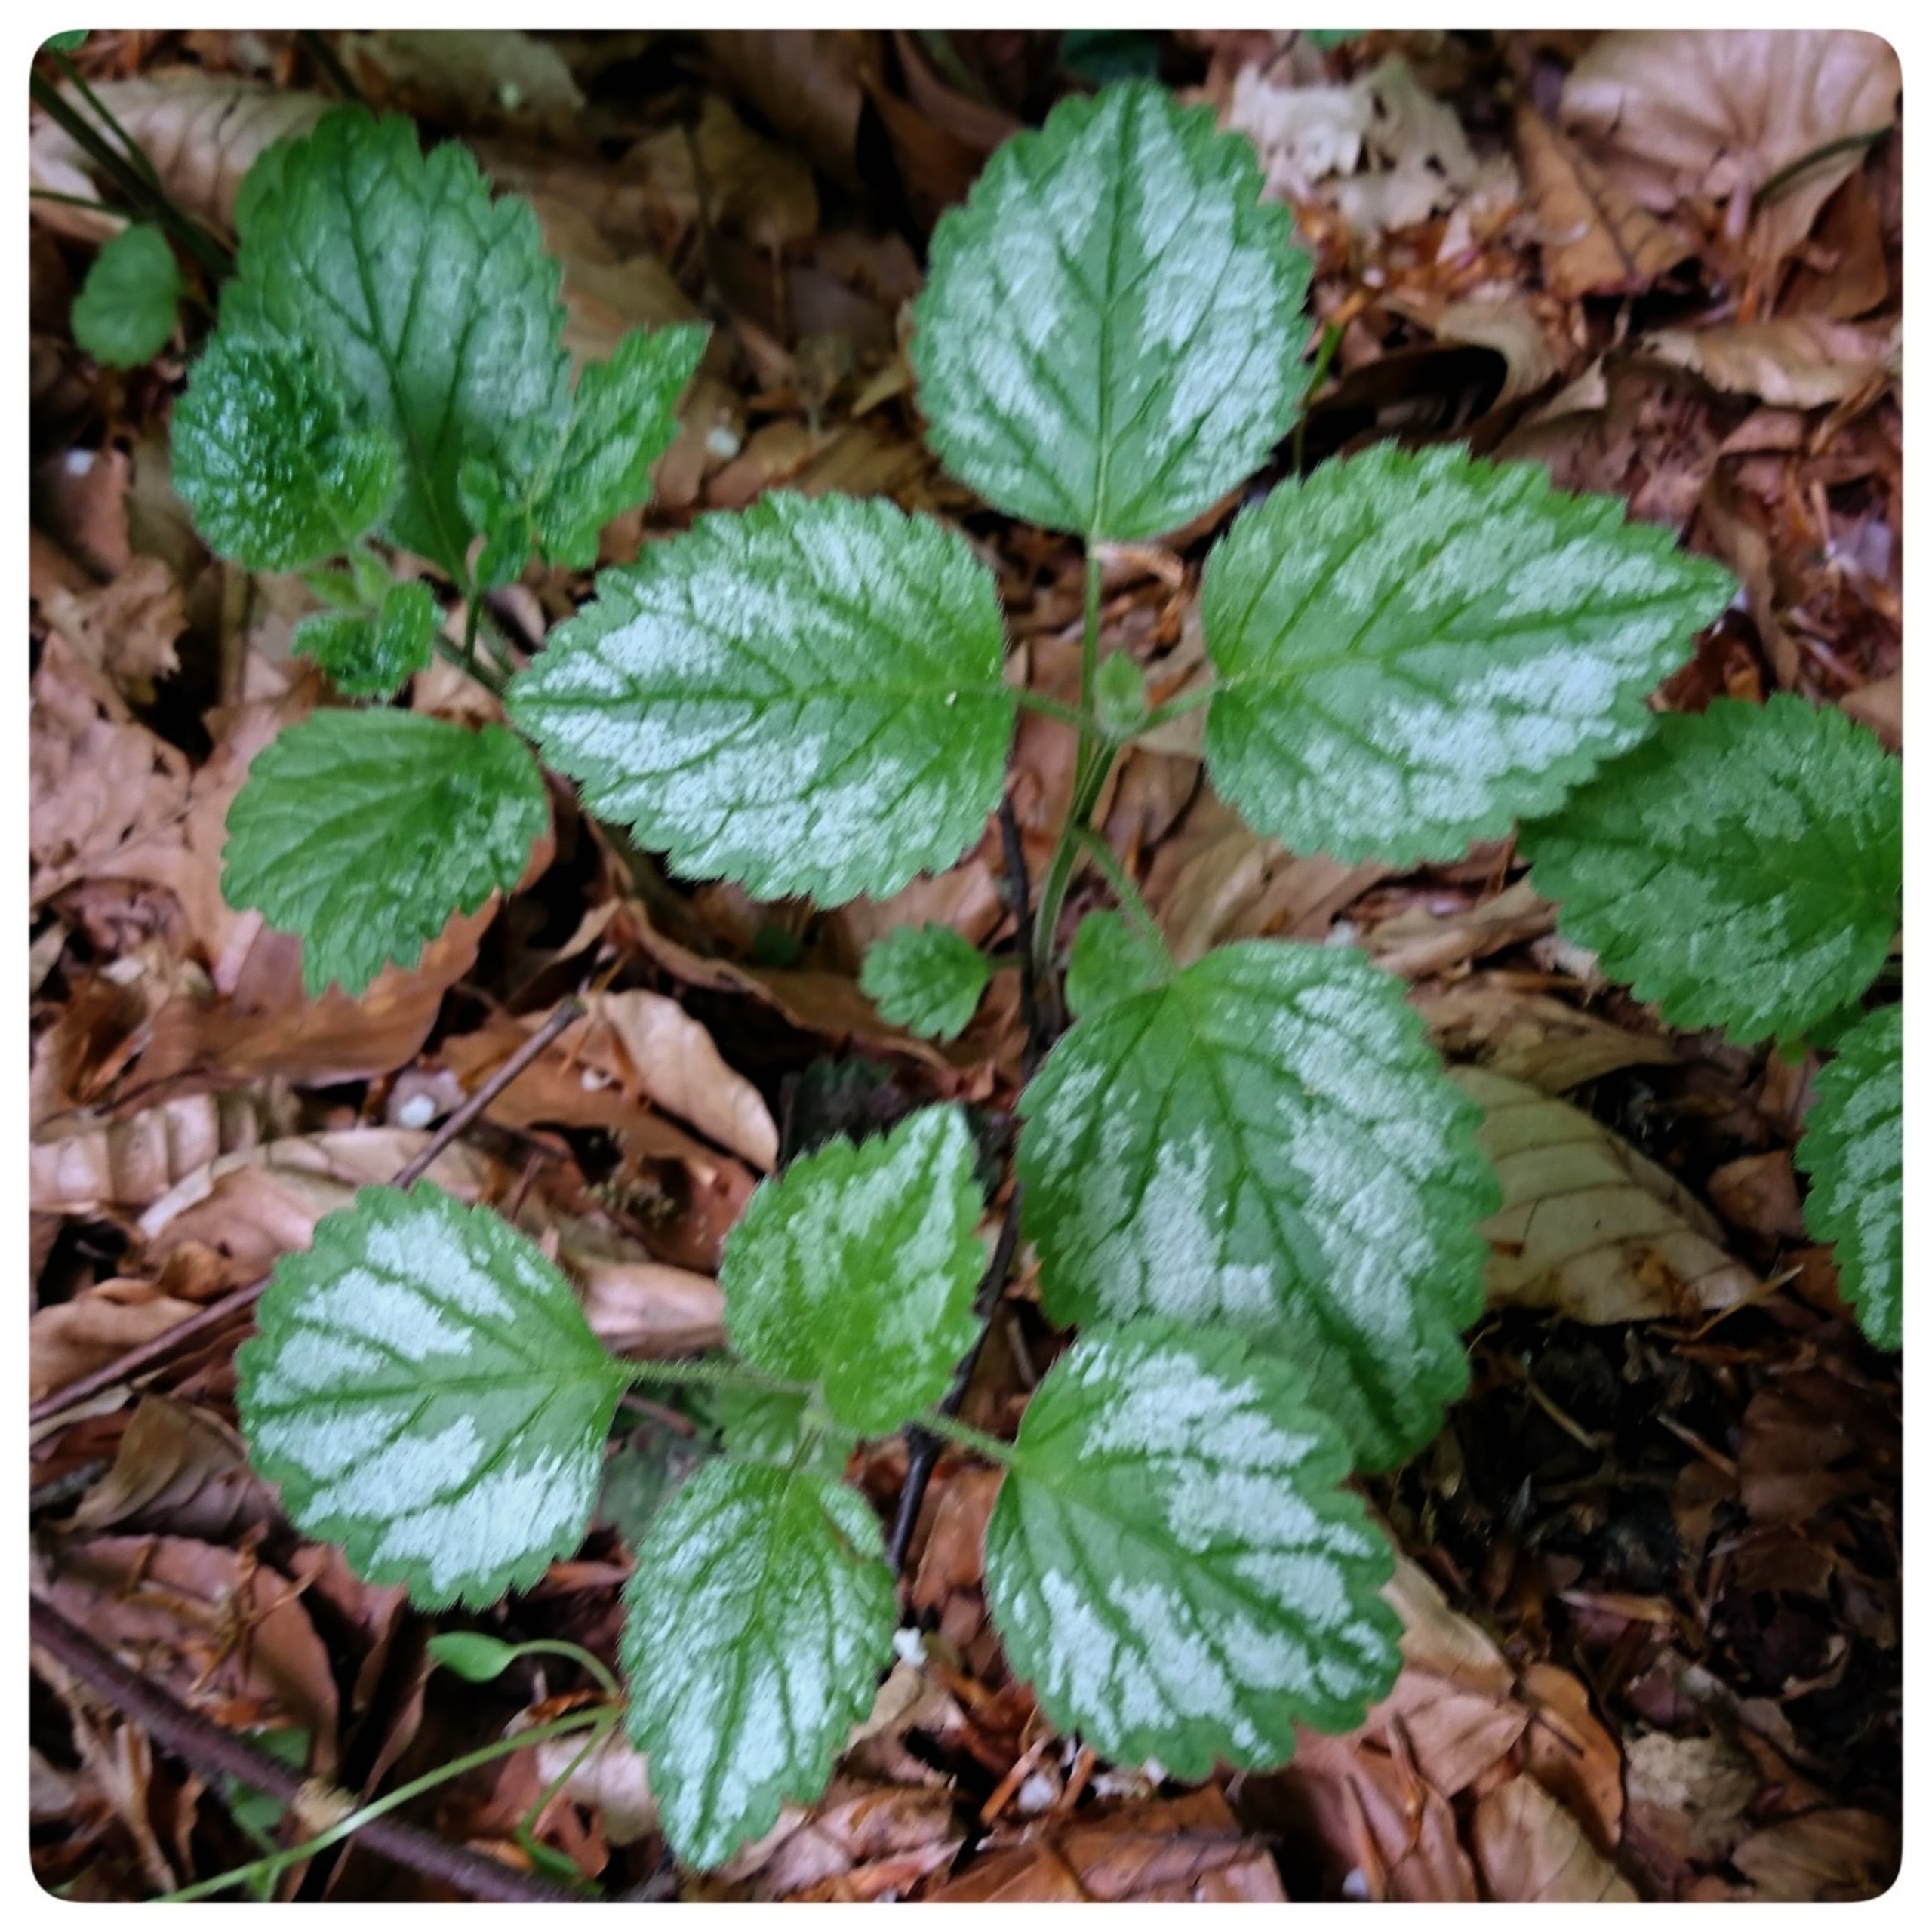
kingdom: Plantae
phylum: Tracheophyta
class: Magnoliopsida
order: Lamiales
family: Lamiaceae
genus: Lamium
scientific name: Lamium galeobdolon
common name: Have-guldnælde
